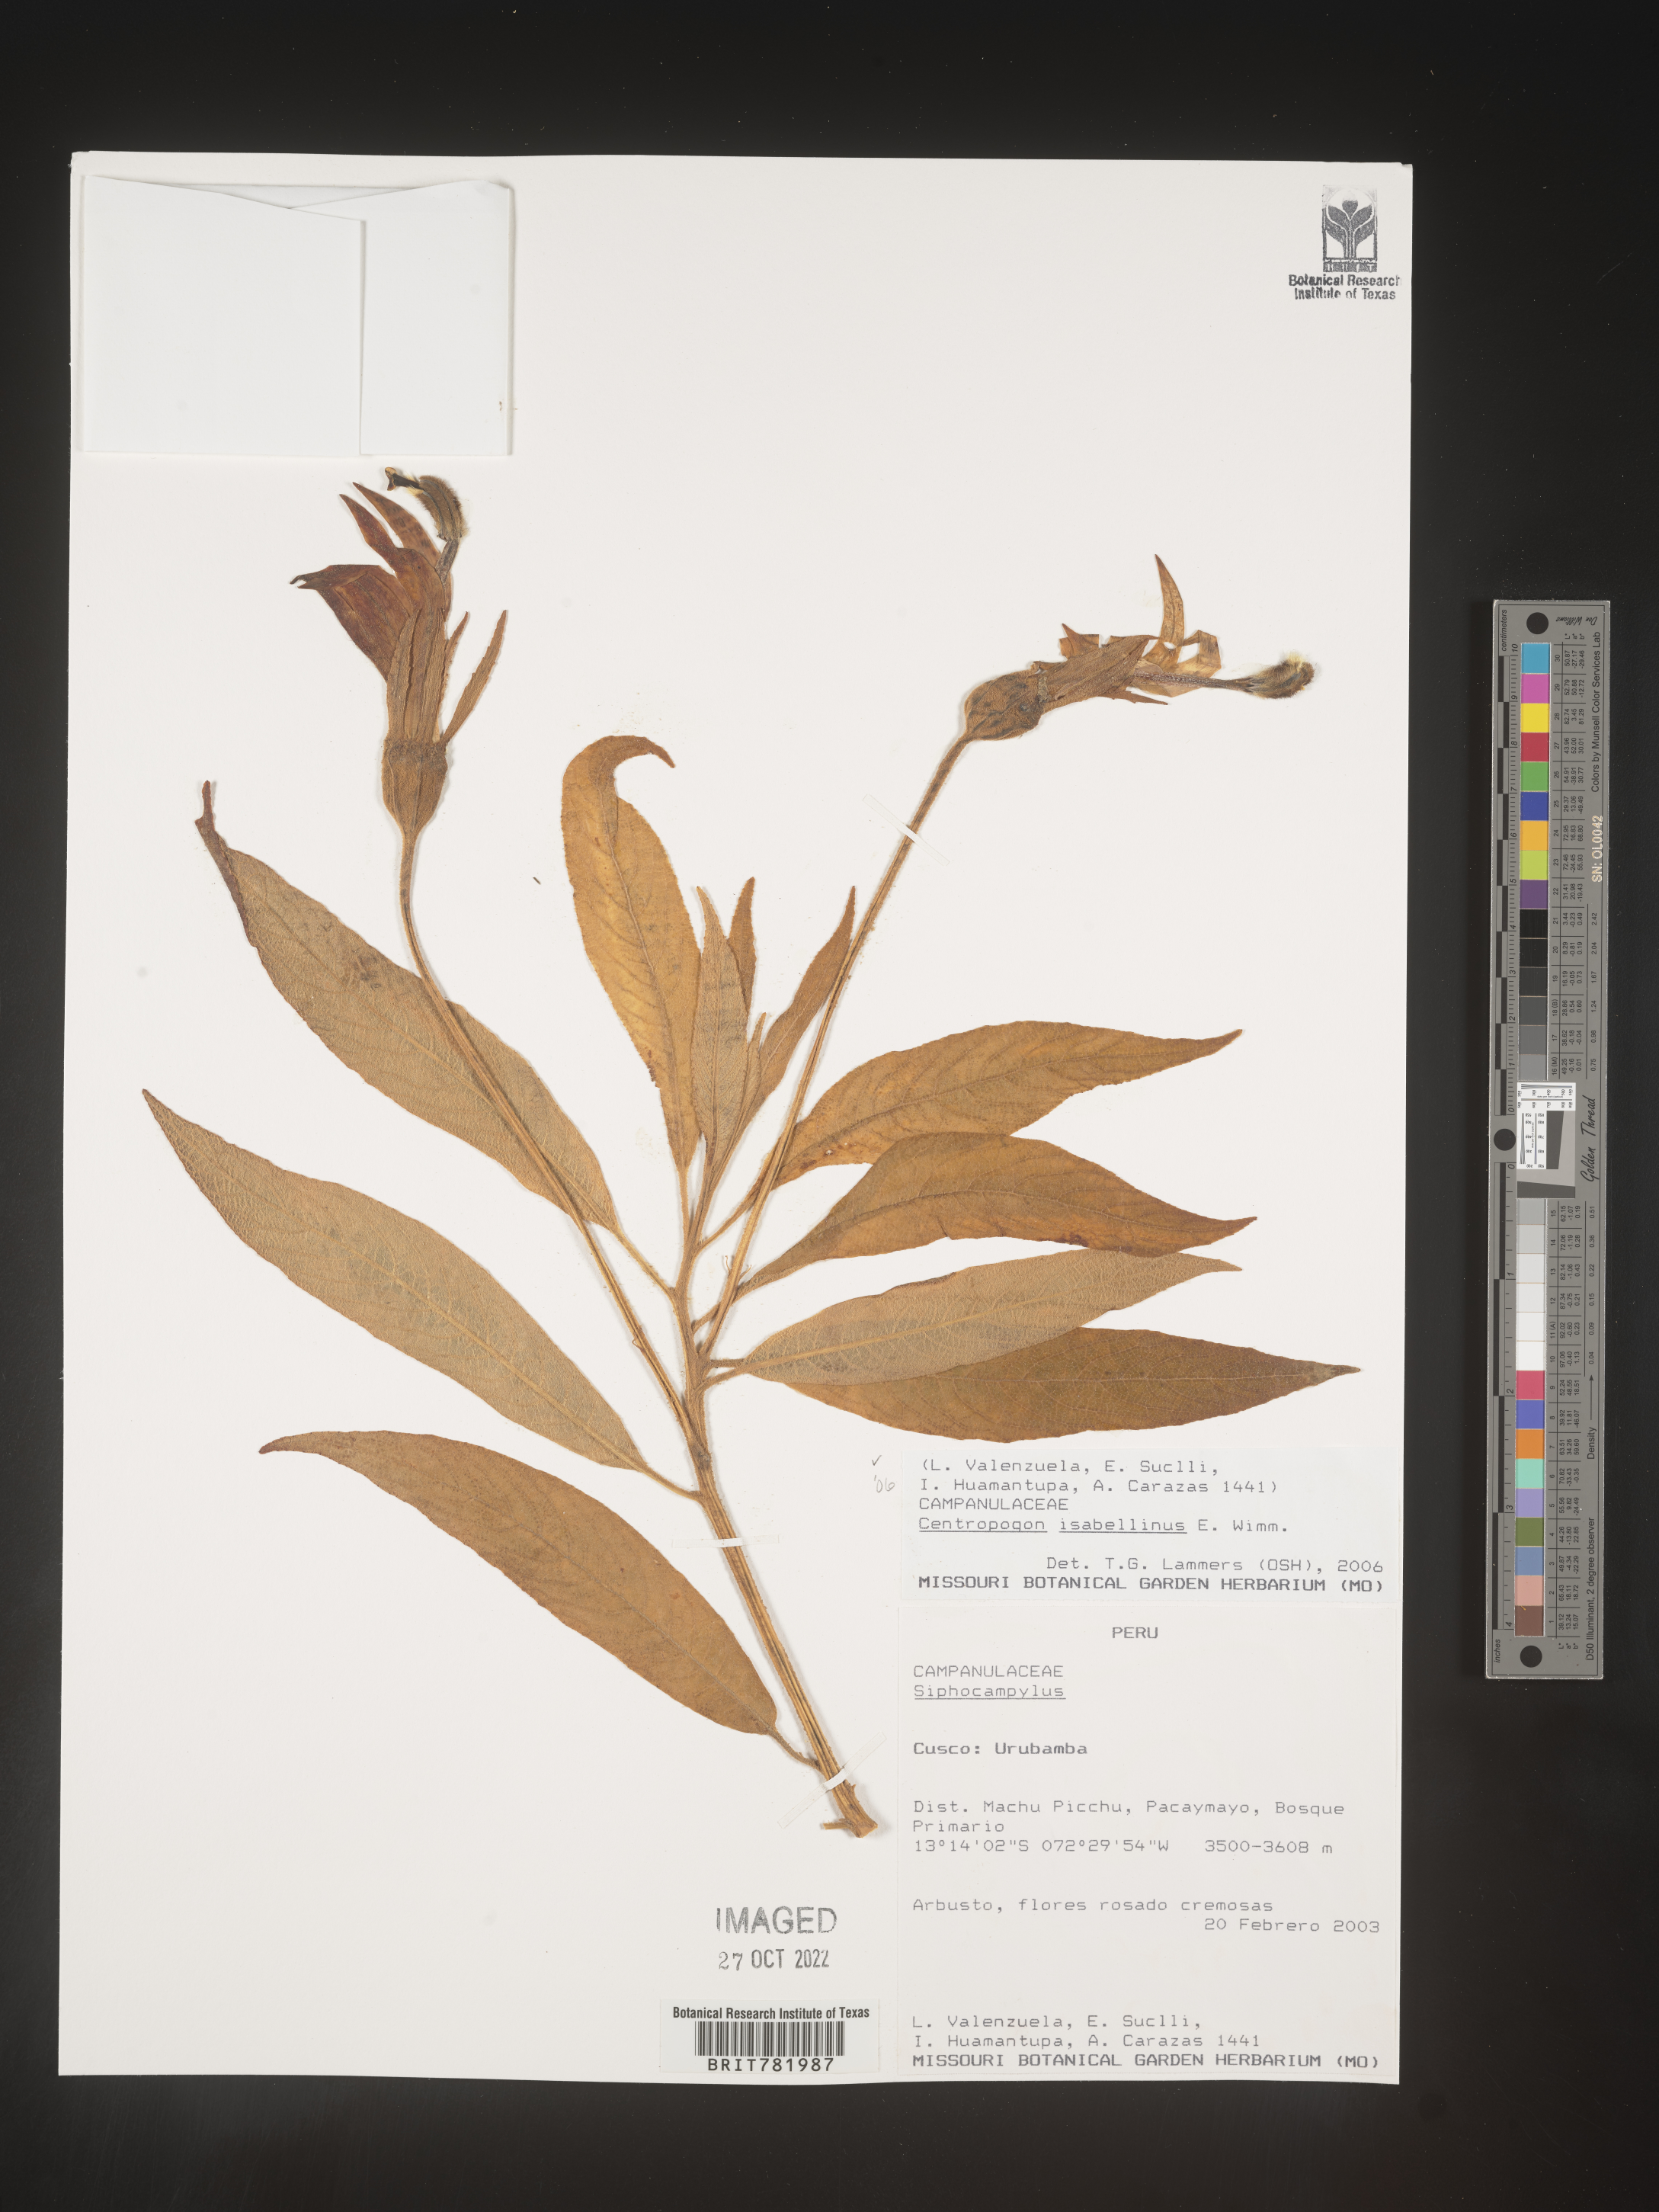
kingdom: Plantae
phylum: Tracheophyta
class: Magnoliopsida
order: Asterales
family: Campanulaceae
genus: Centropogon
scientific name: Centropogon
